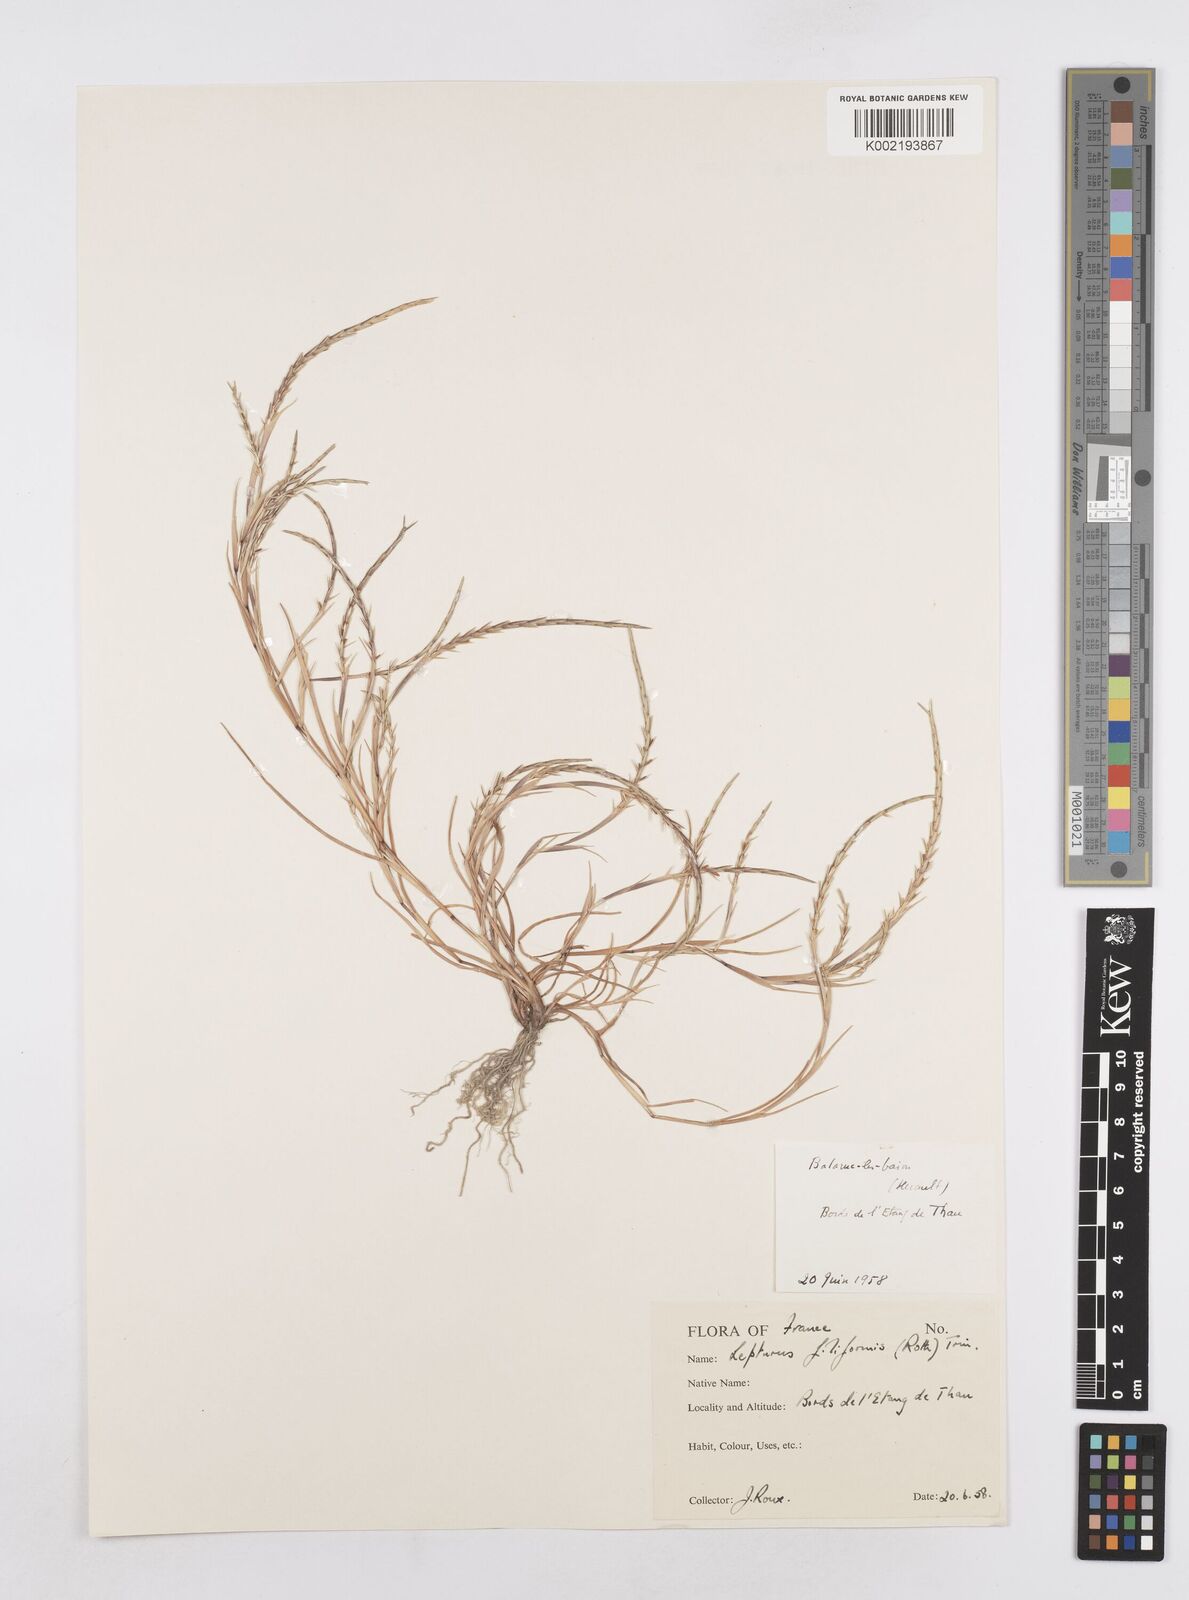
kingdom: Plantae
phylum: Tracheophyta
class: Liliopsida
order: Poales
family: Poaceae
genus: Parapholis
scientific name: Parapholis strigosa
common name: Hard-grass
